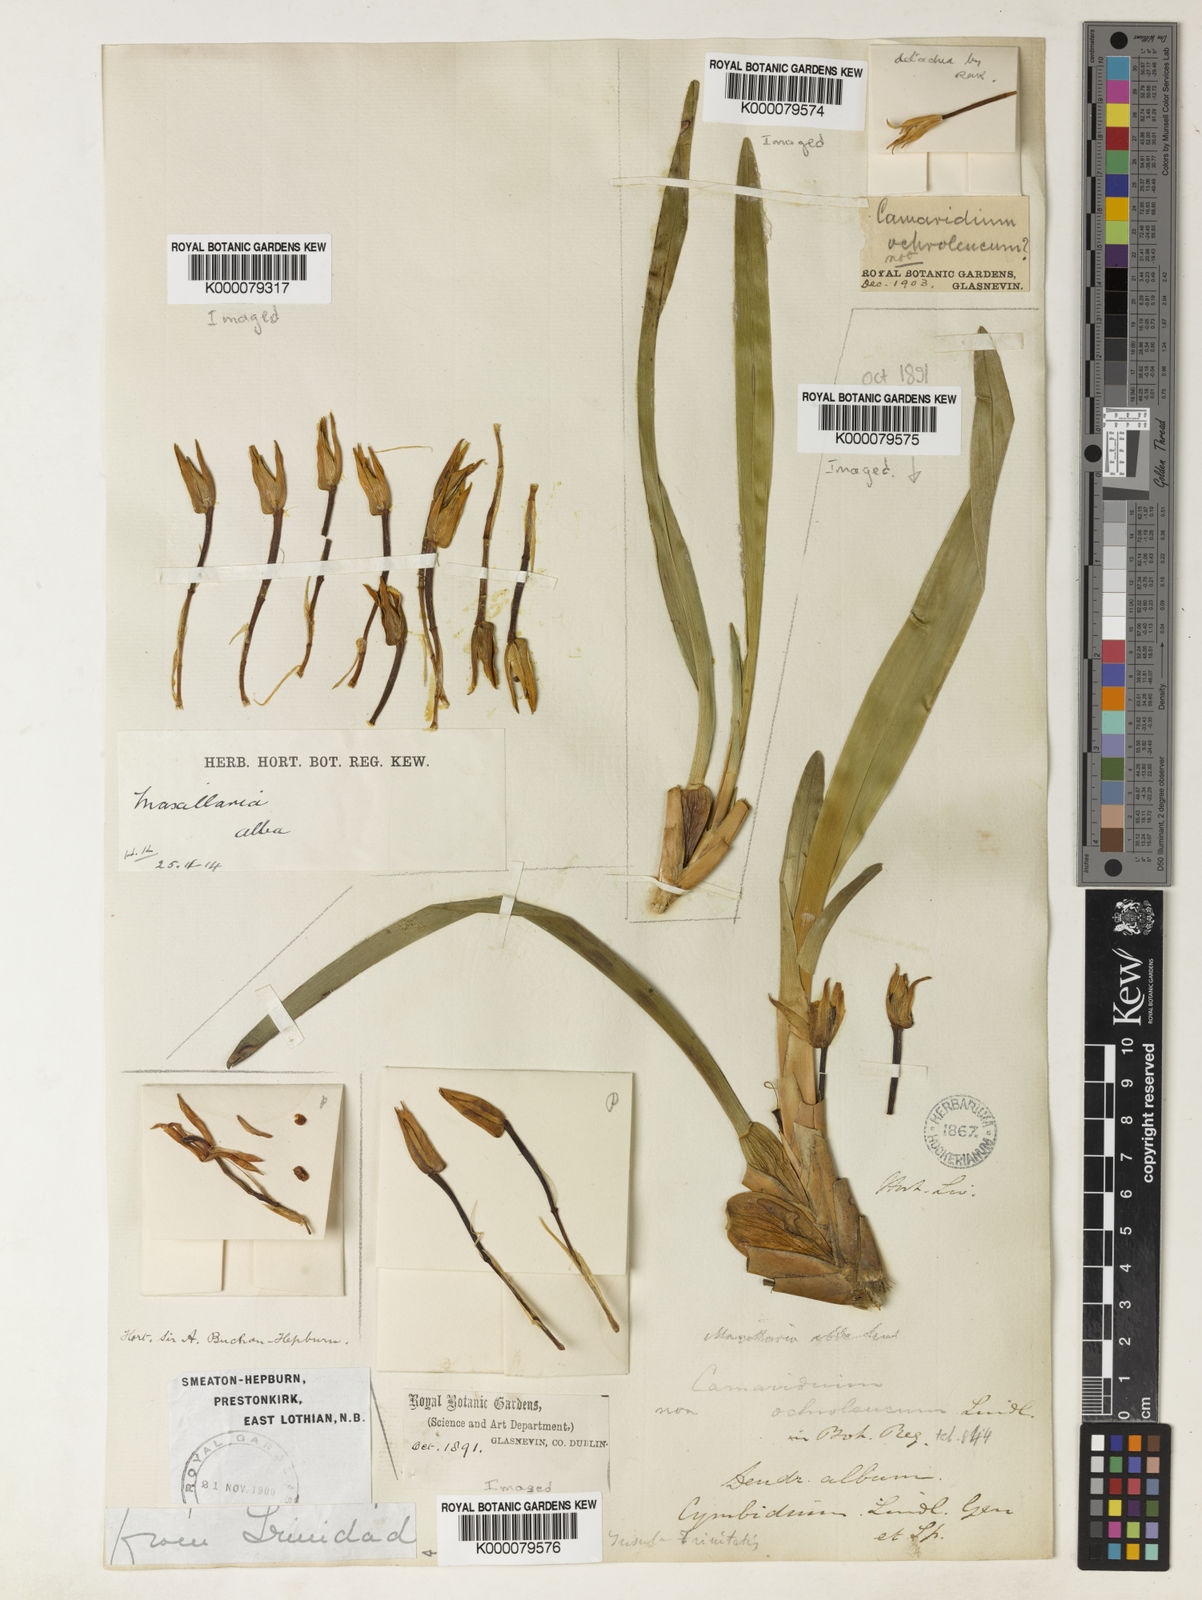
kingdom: Plantae
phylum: Tracheophyta
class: Liliopsida
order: Asparagales
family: Orchidaceae
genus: Maxillaria
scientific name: Maxillaria alba
